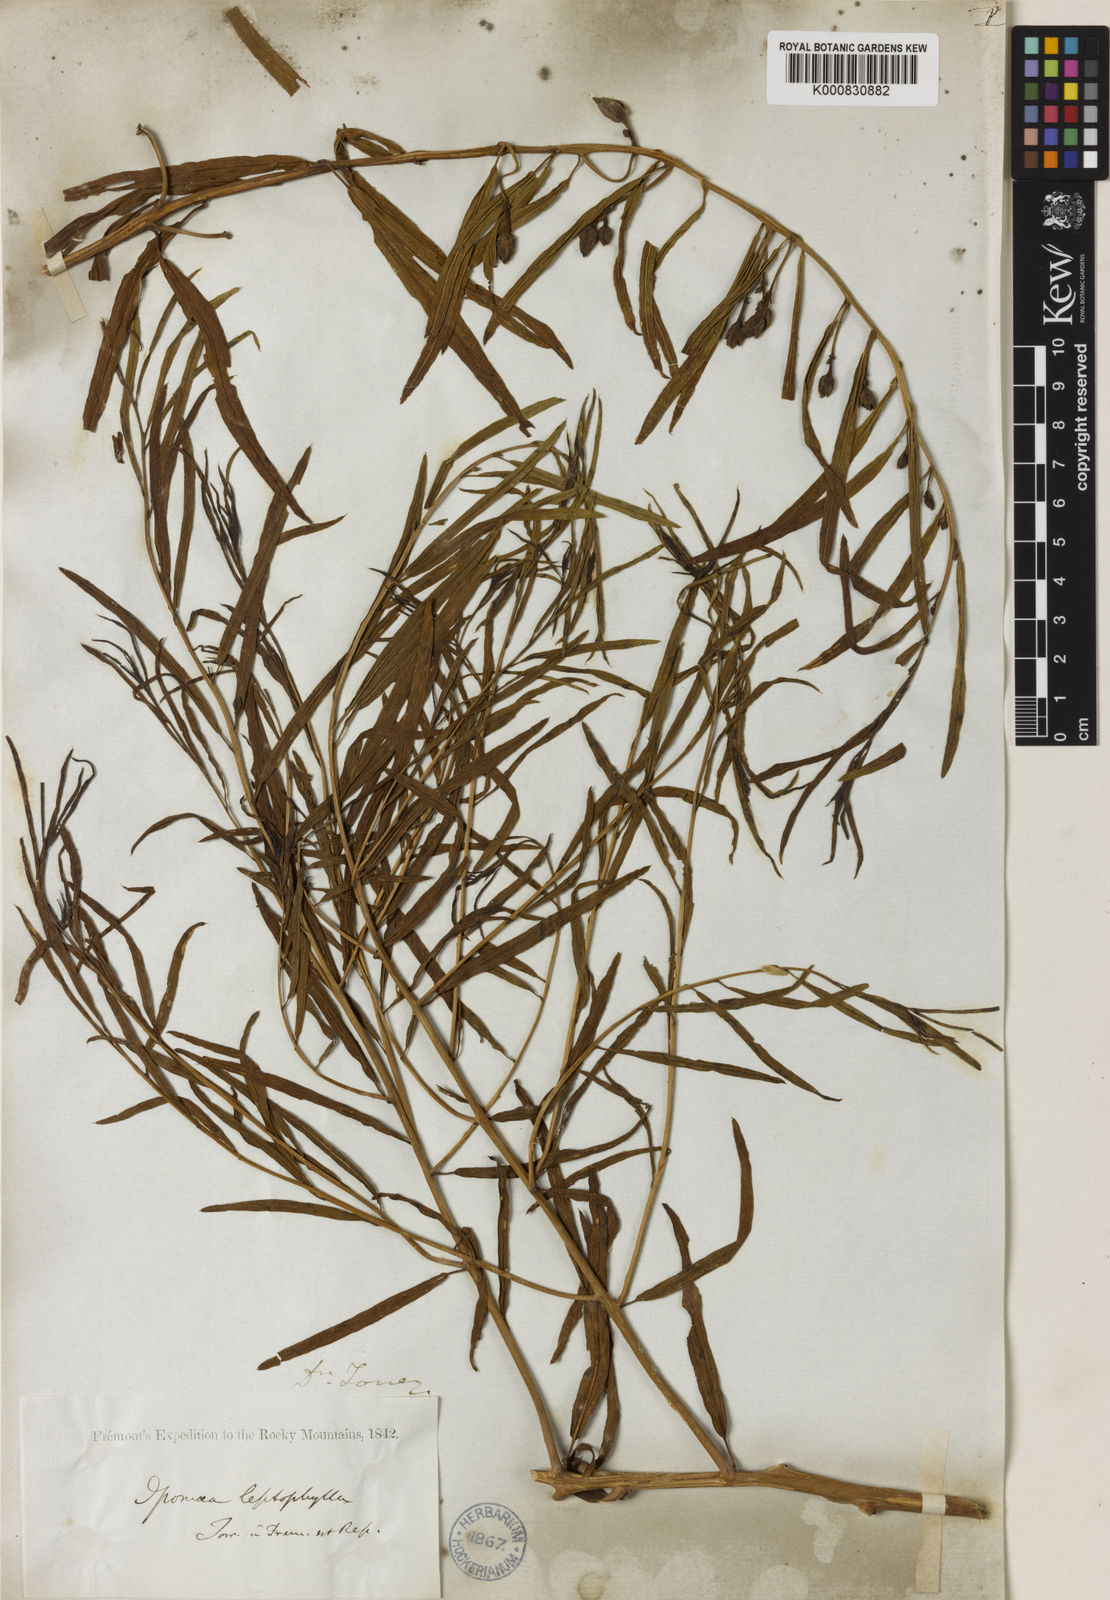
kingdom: Plantae
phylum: Tracheophyta
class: Magnoliopsida
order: Solanales
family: Convolvulaceae
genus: Ipomoea
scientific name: Ipomoea leptophylla
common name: Bush moonflower
